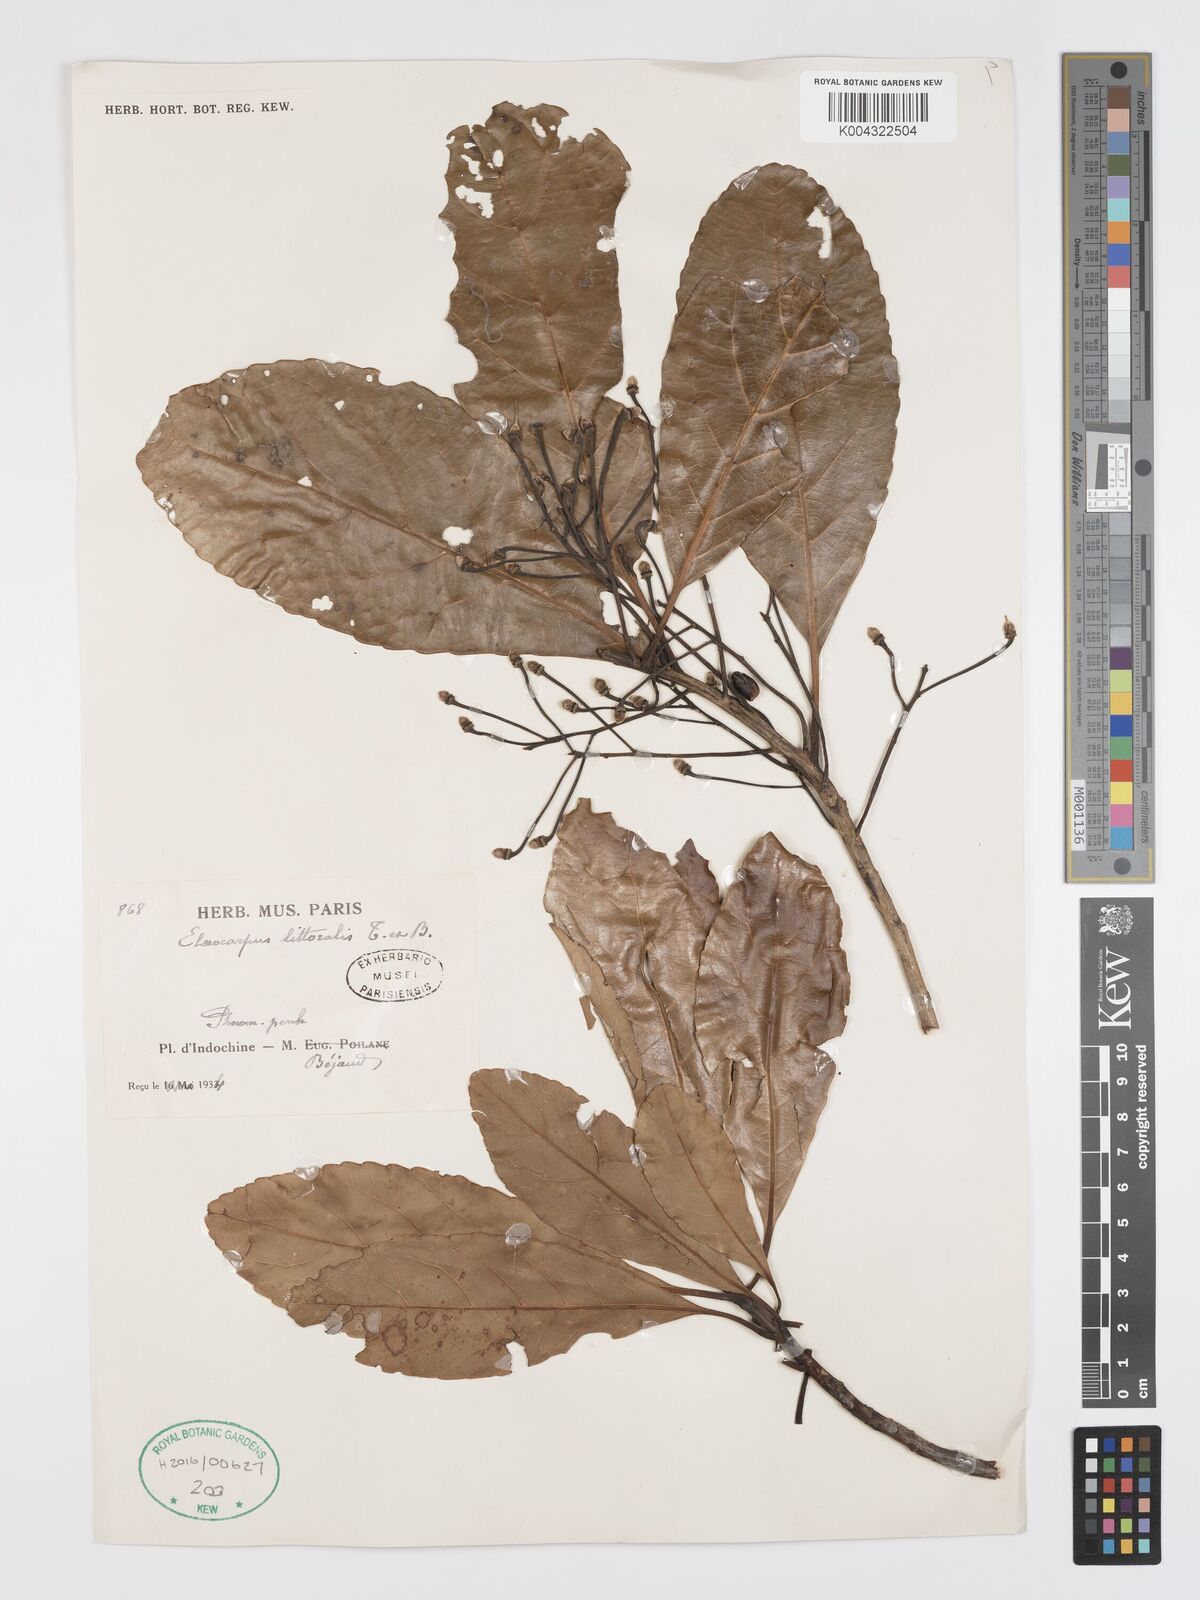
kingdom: Plantae
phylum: Tracheophyta
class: Magnoliopsida
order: Oxalidales
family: Elaeocarpaceae
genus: Elaeocarpus
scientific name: Elaeocarpus macrocerus
